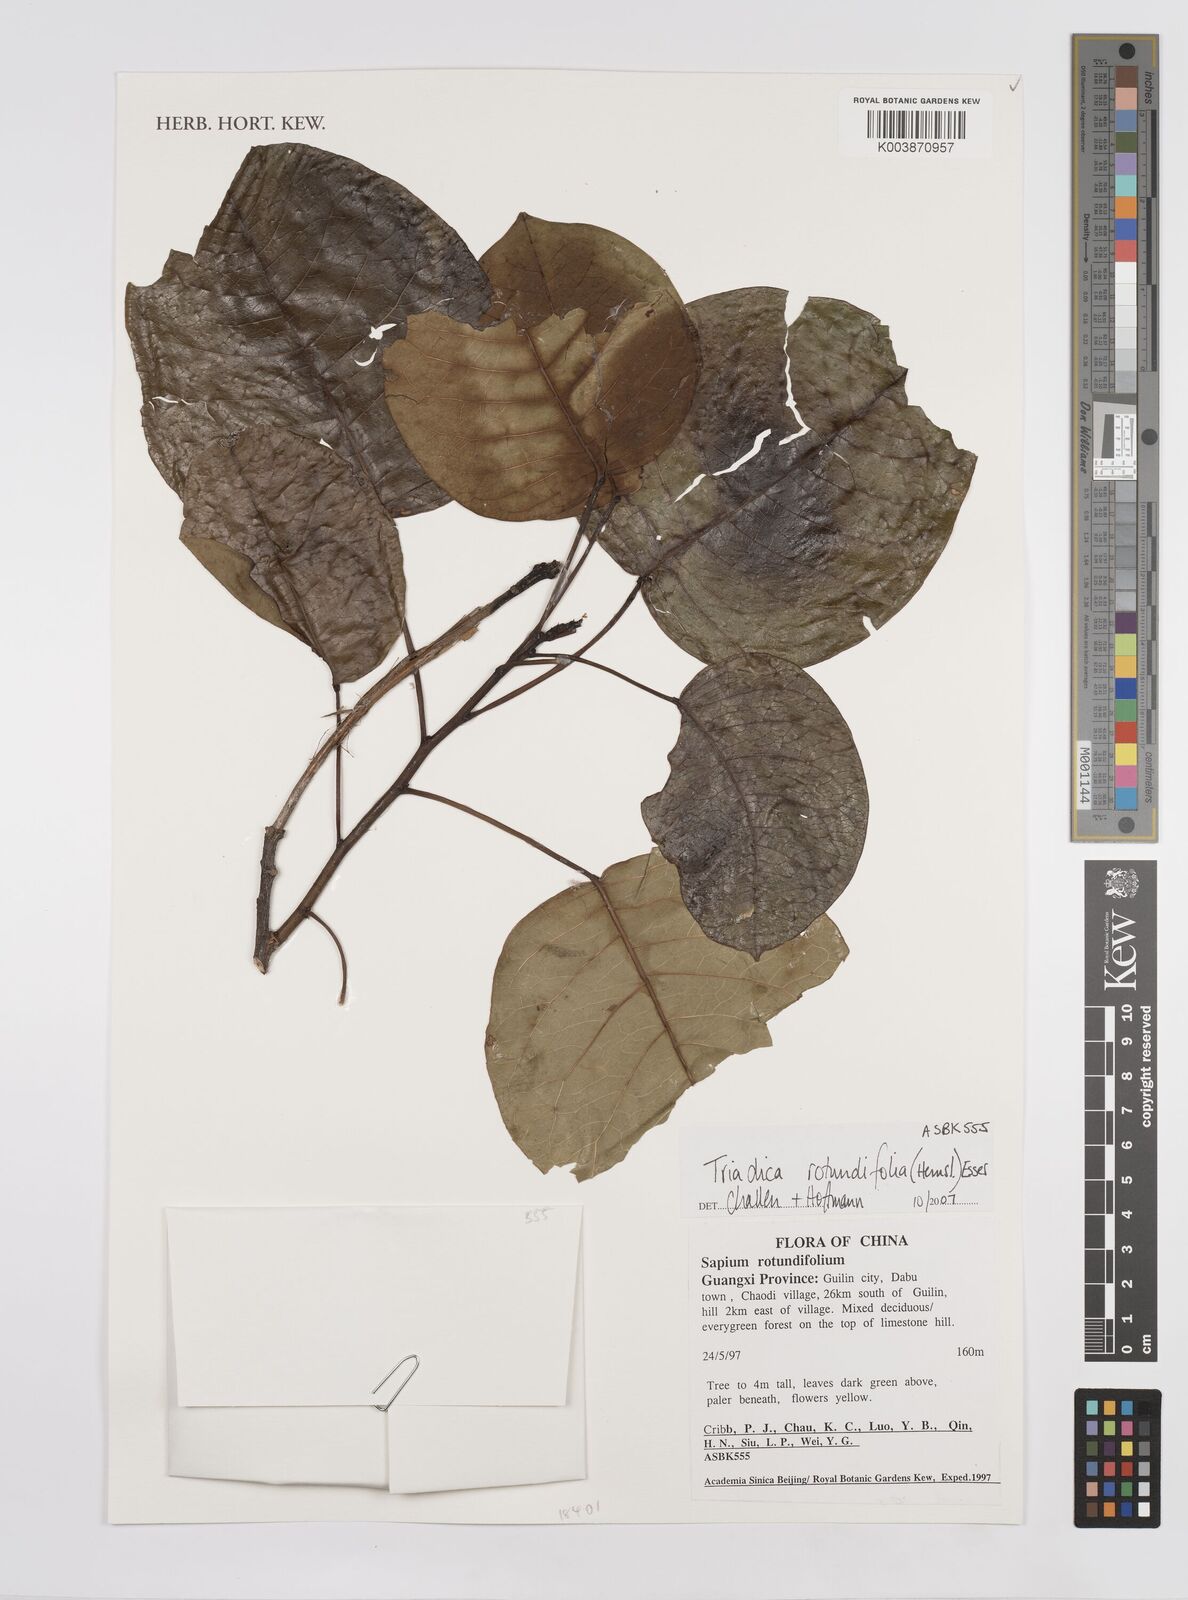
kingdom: Plantae
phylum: Tracheophyta
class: Magnoliopsida
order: Malpighiales
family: Euphorbiaceae
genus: Triadica
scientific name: Triadica rotundifolia
